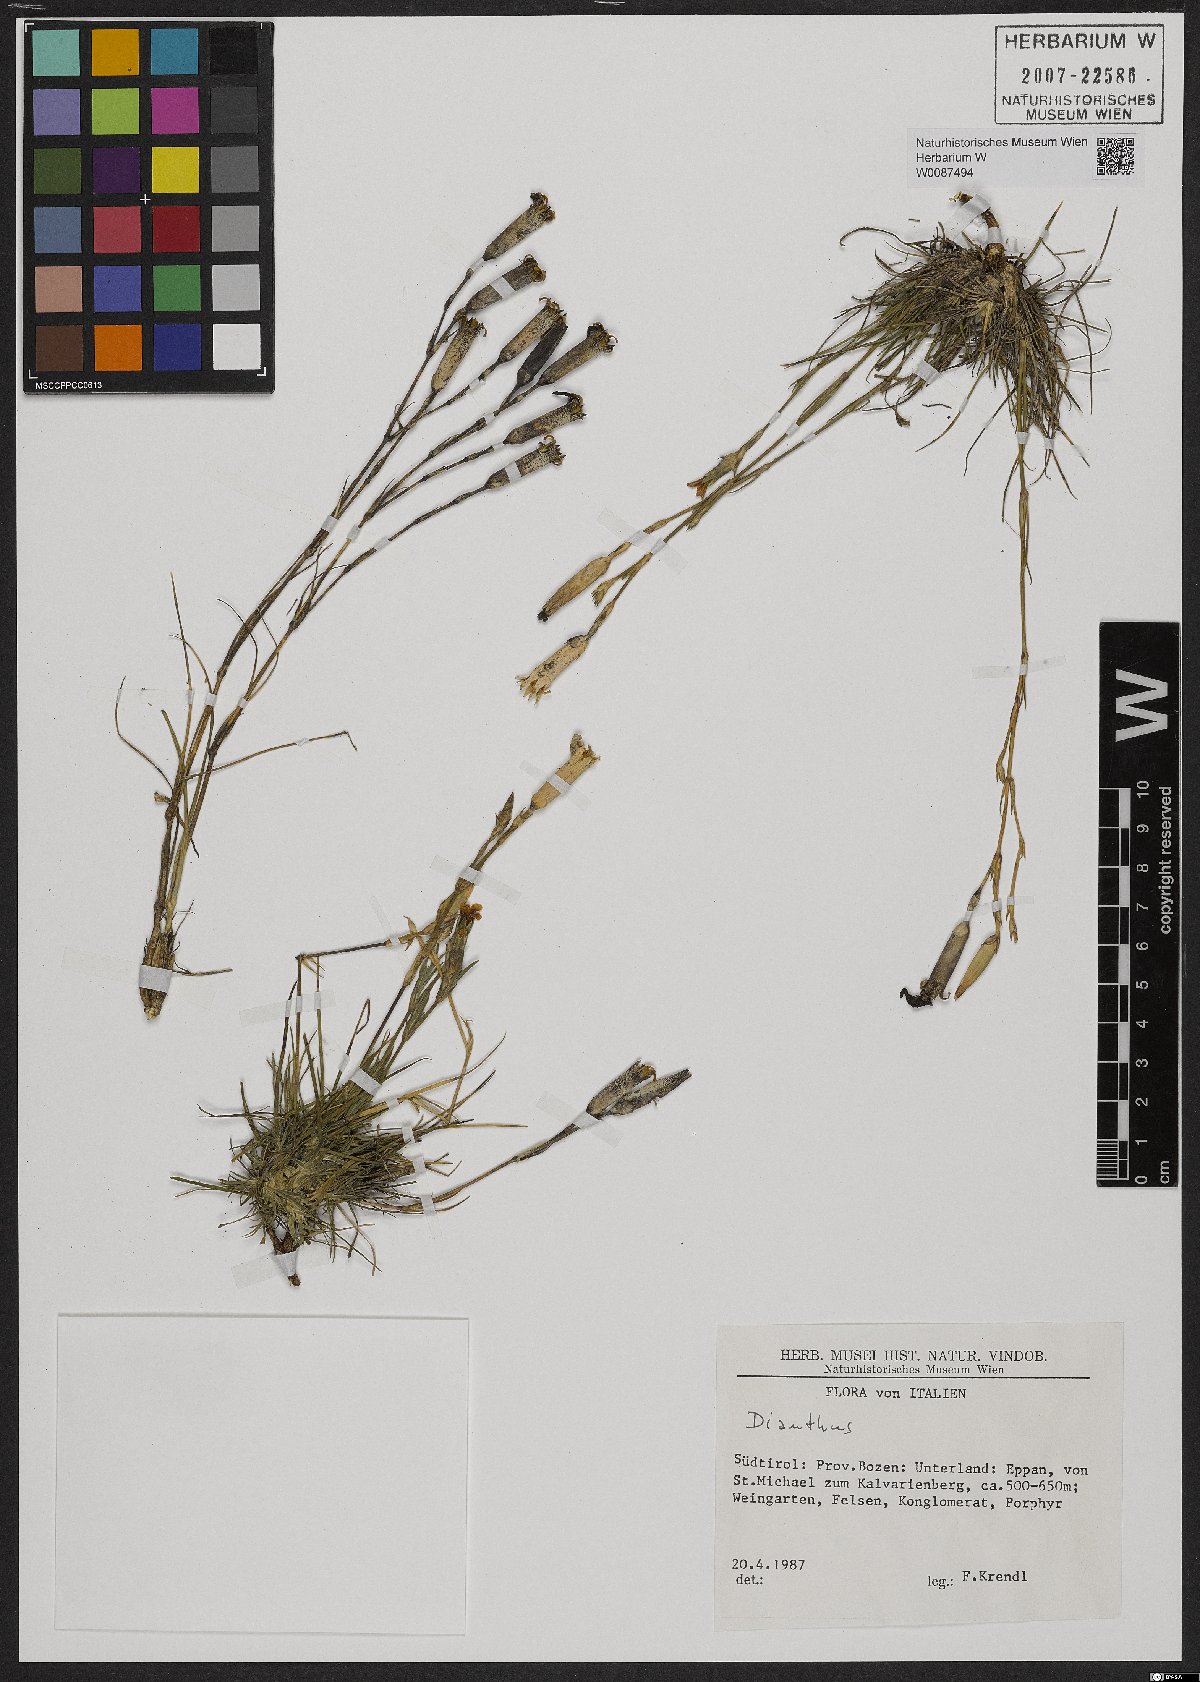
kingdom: Plantae
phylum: Tracheophyta
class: Magnoliopsida
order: Caryophyllales
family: Caryophyllaceae
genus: Dianthus
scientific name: Dianthus
